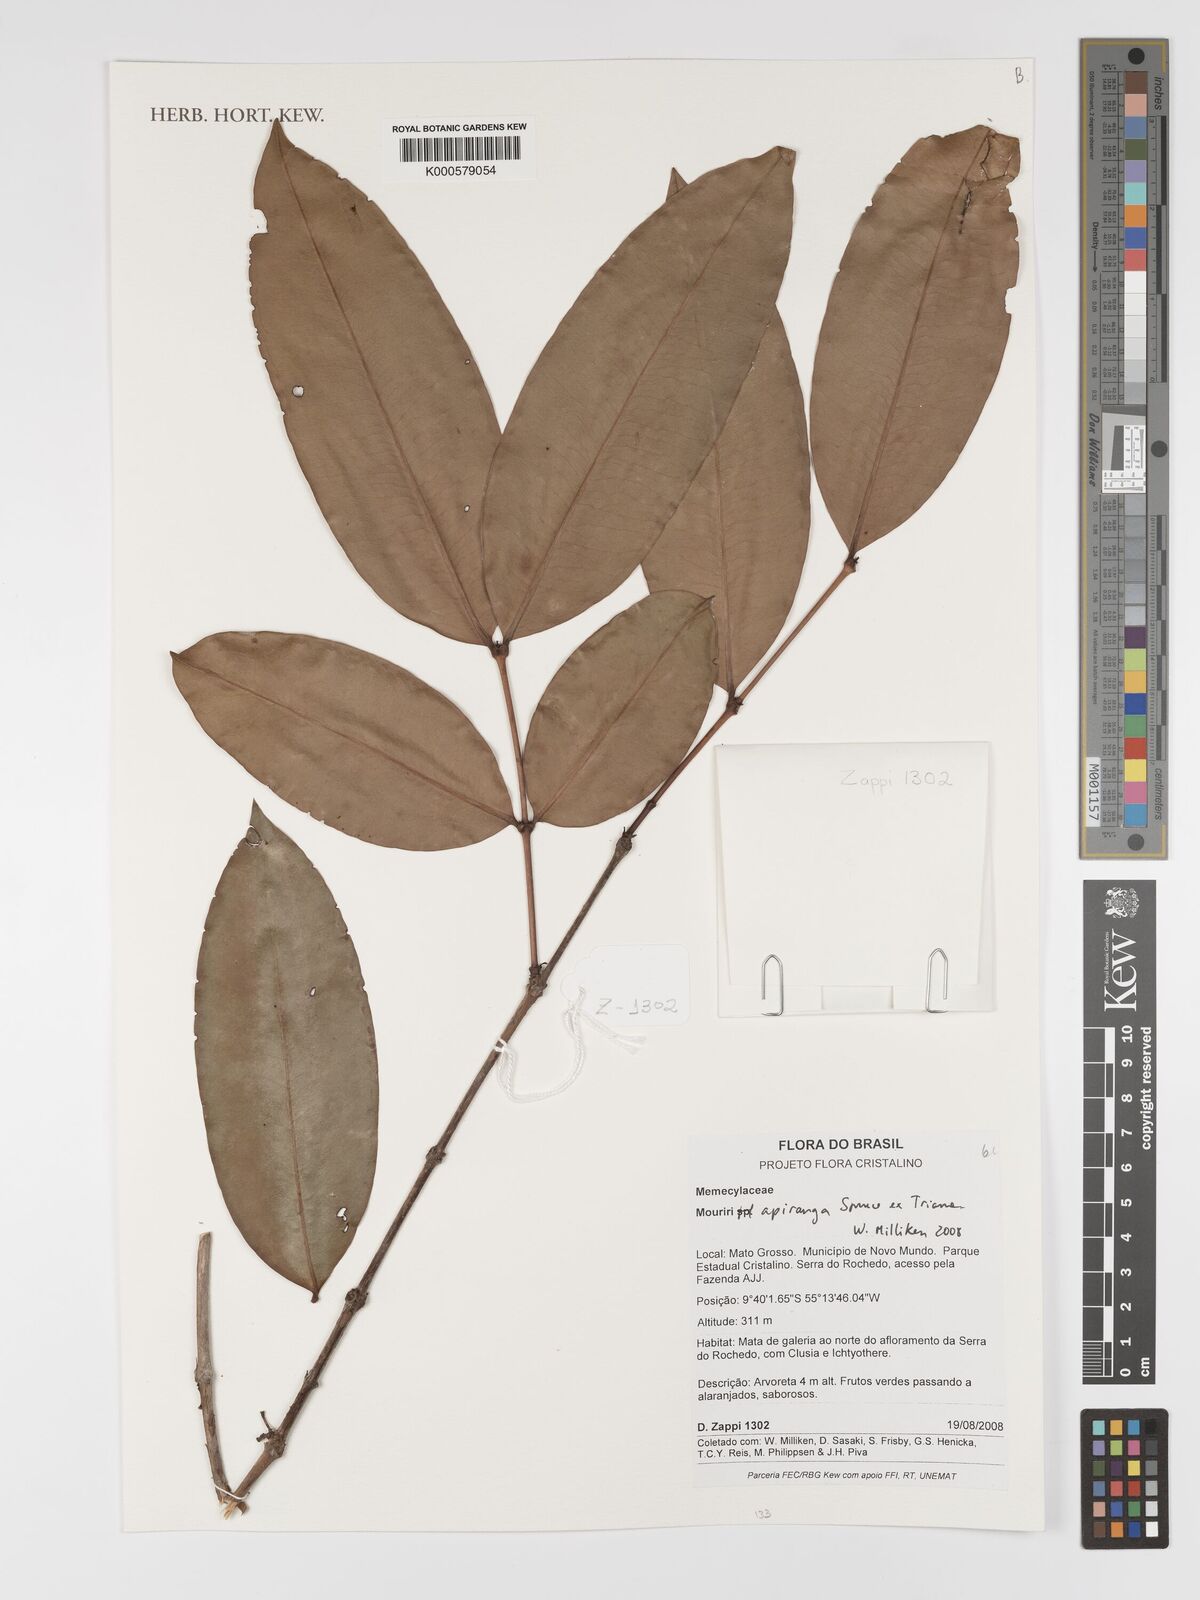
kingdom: Plantae
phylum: Tracheophyta
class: Magnoliopsida
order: Myrtales
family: Melastomataceae
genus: Mouriri
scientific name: Mouriri apiranga
